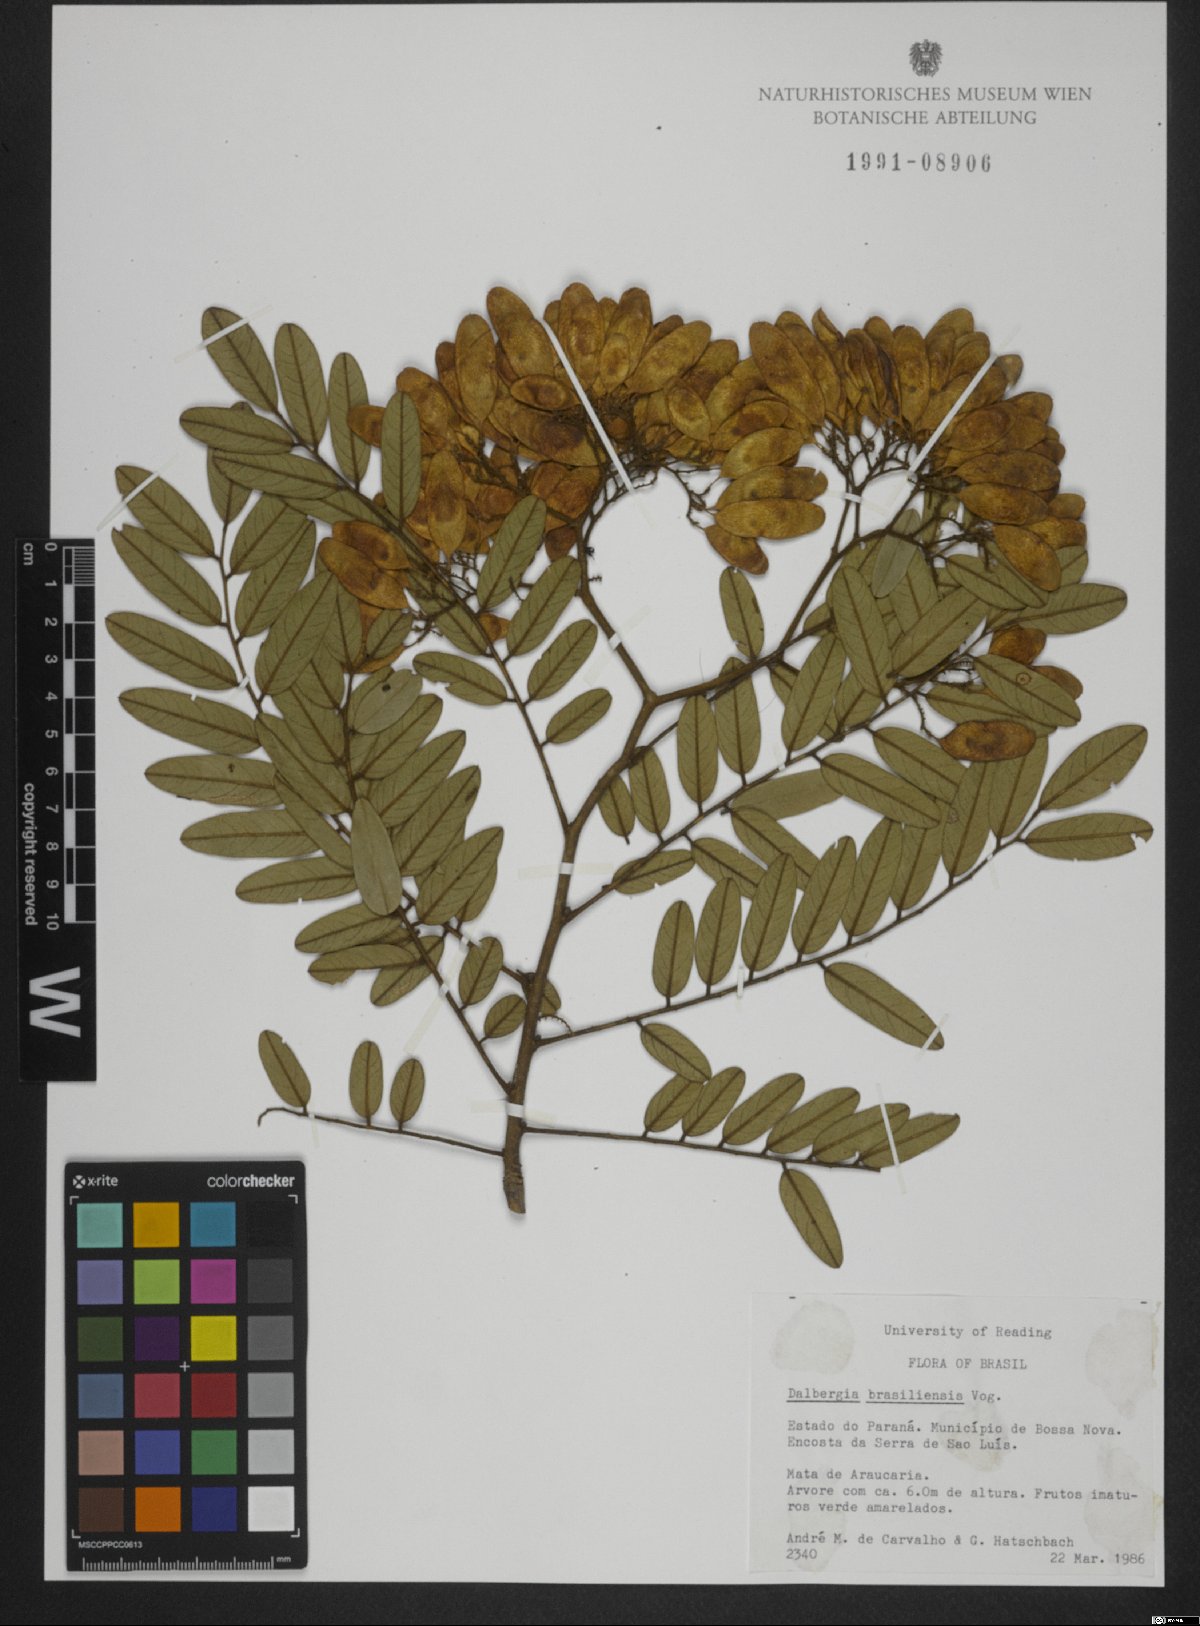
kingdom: Plantae
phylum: Tracheophyta
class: Magnoliopsida
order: Fabales
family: Fabaceae
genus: Dalbergia
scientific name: Dalbergia brasiliensis
